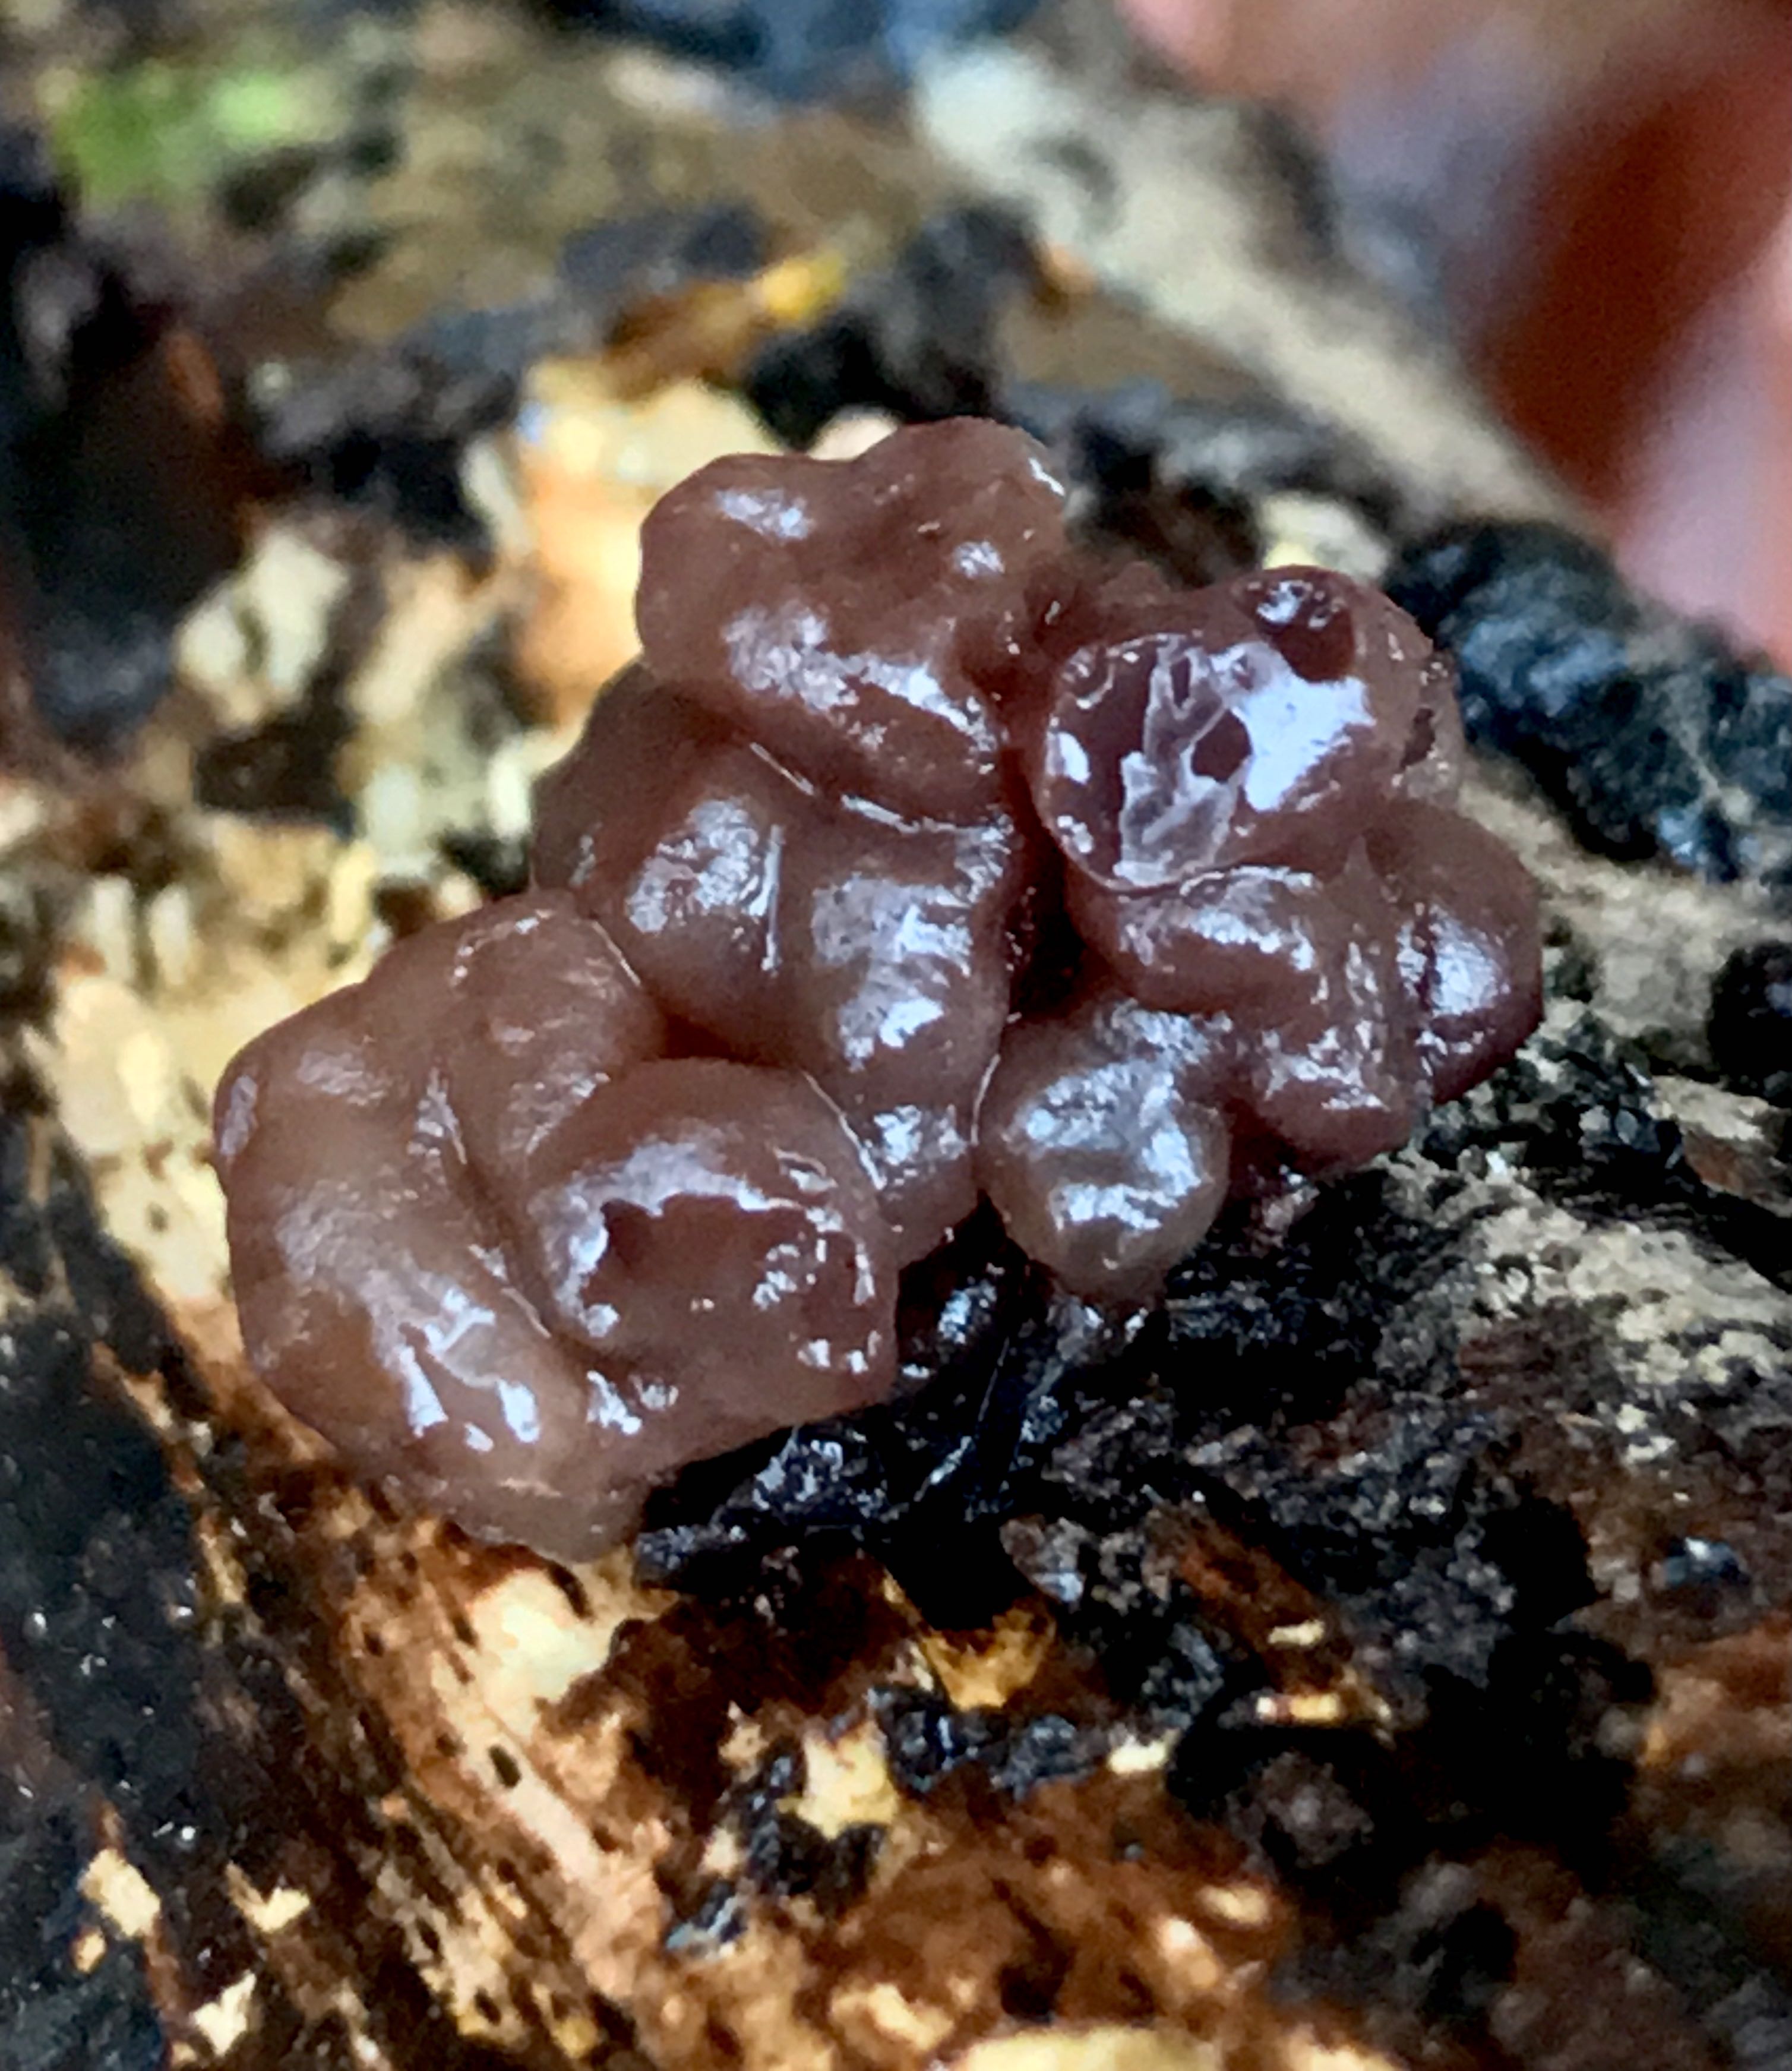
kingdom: Fungi
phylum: Ascomycota
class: Leotiomycetes
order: Helotiales
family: Gelatinodiscaceae
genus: Ascotremella
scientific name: Ascotremella faginea
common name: hjerne-bævreskive
